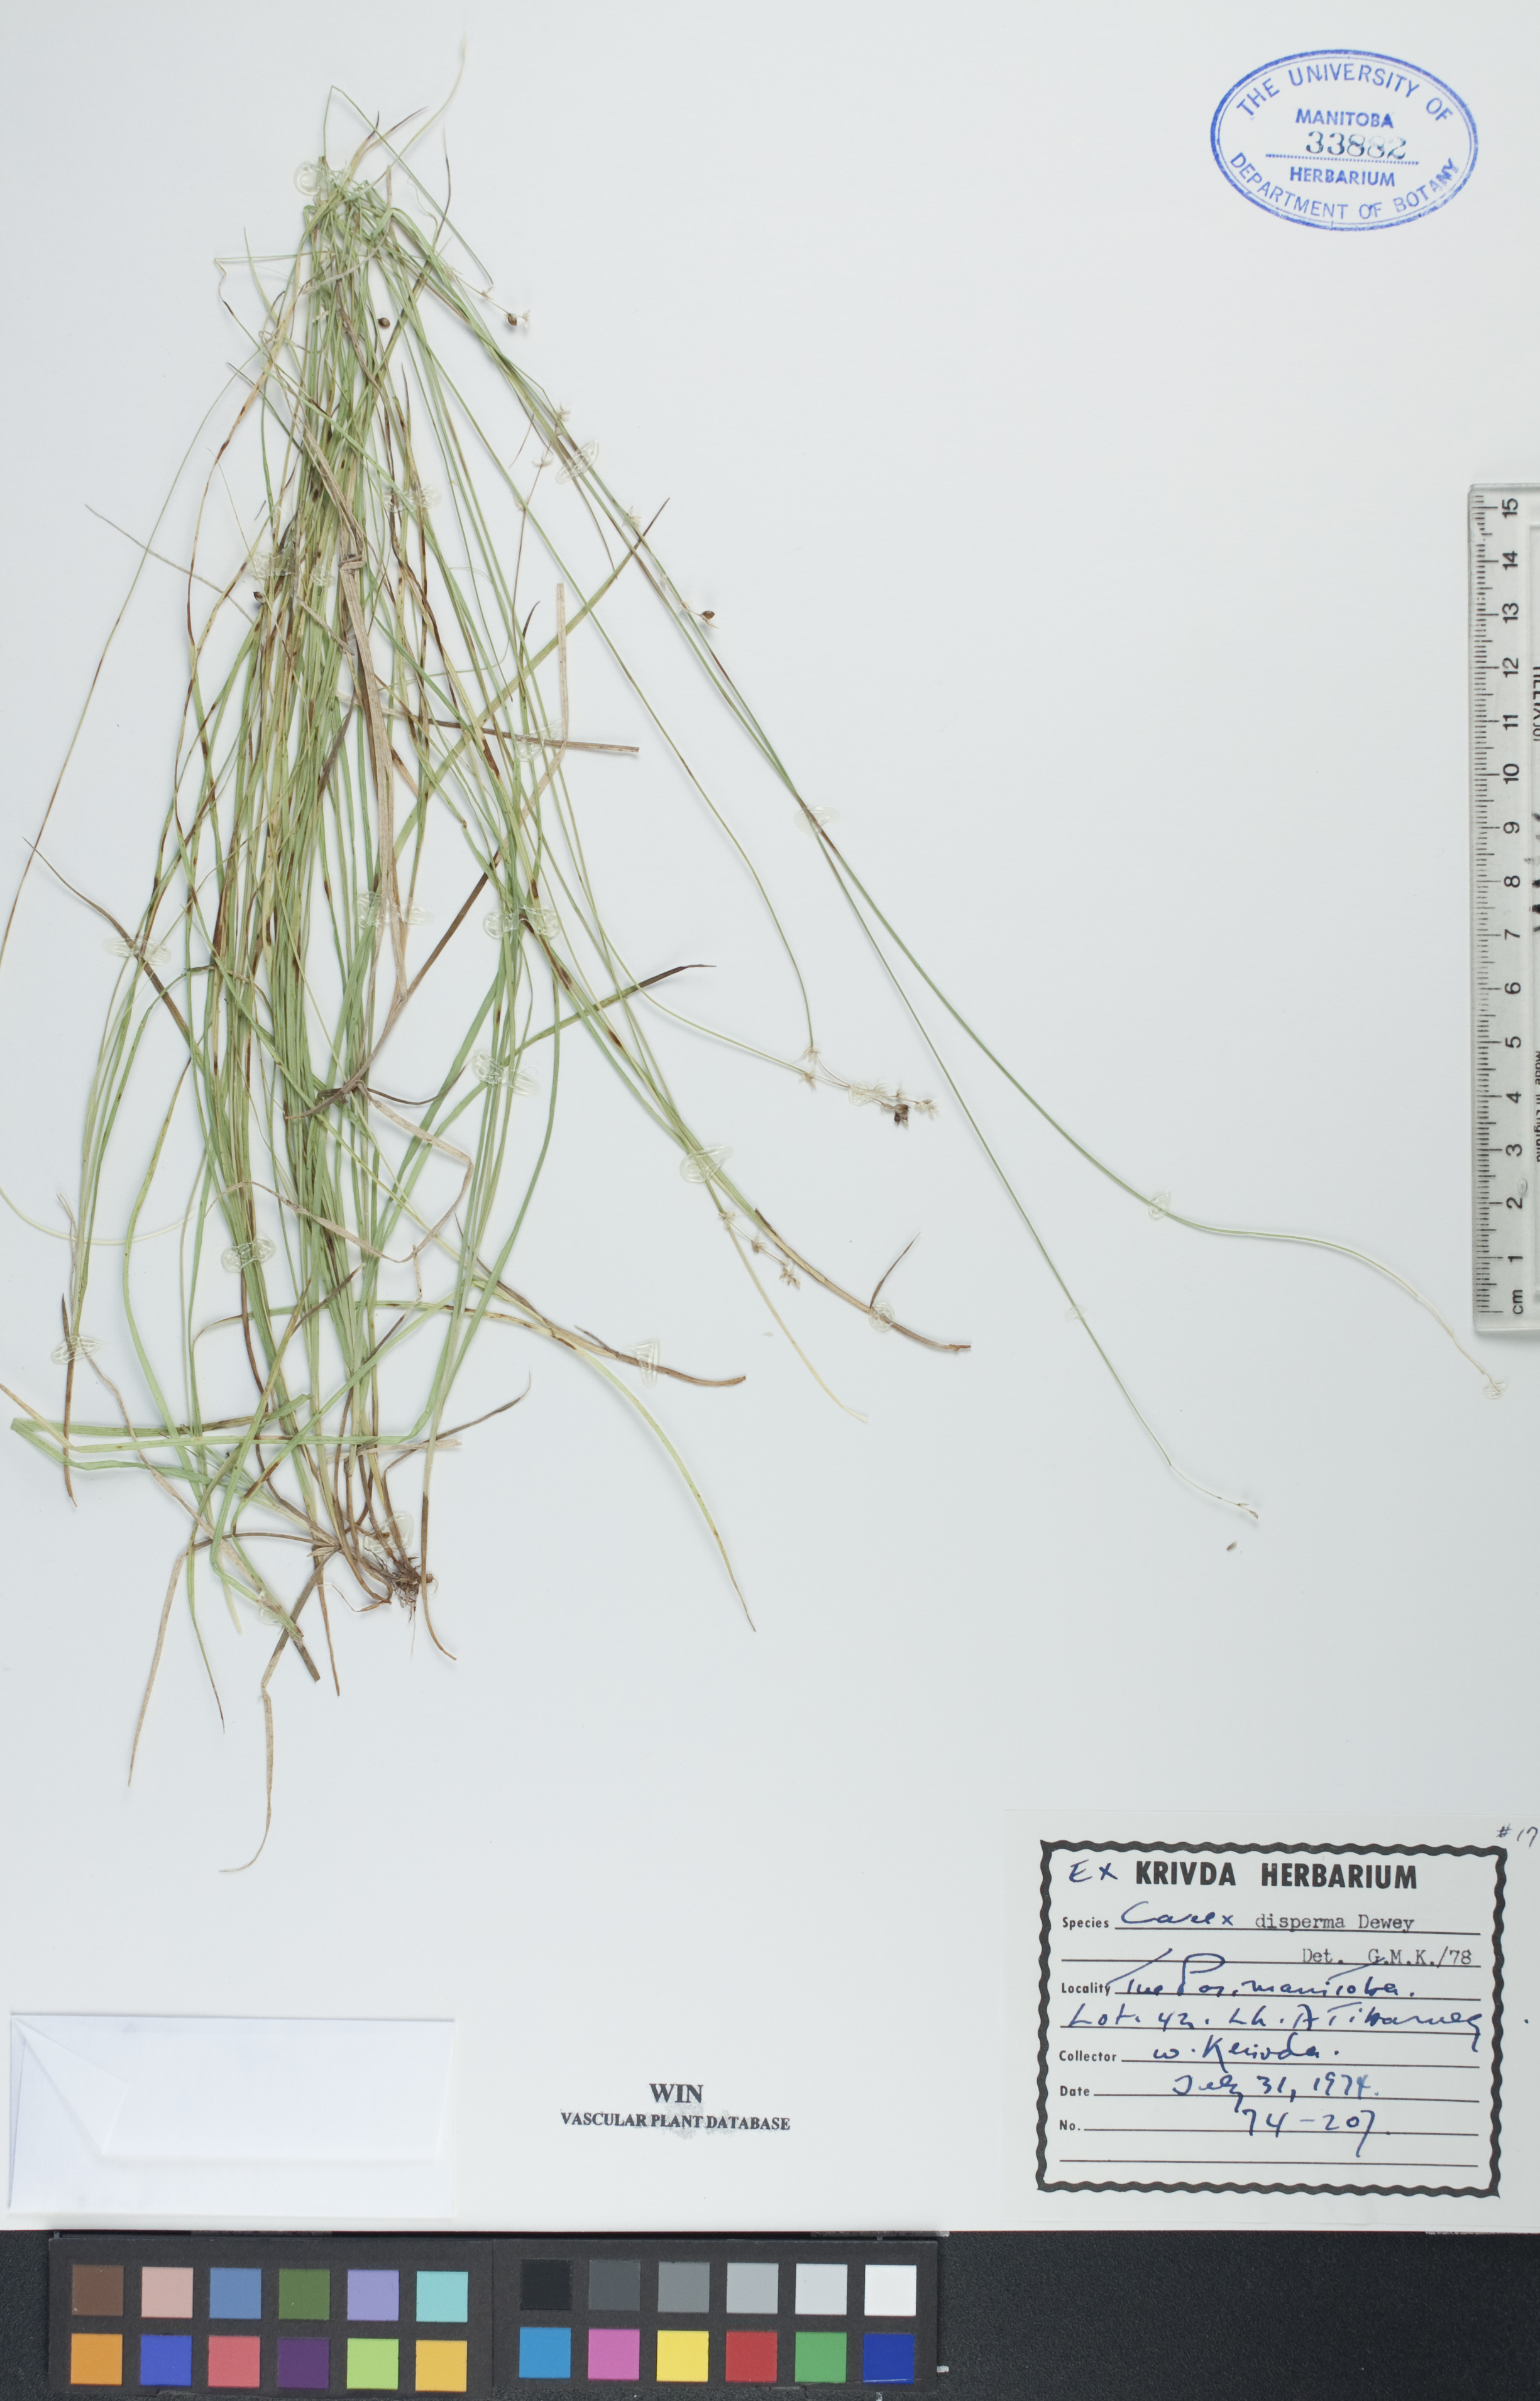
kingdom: Plantae
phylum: Tracheophyta
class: Liliopsida
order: Poales
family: Cyperaceae
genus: Carex
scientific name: Carex disperma
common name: Short-leaved sedge
